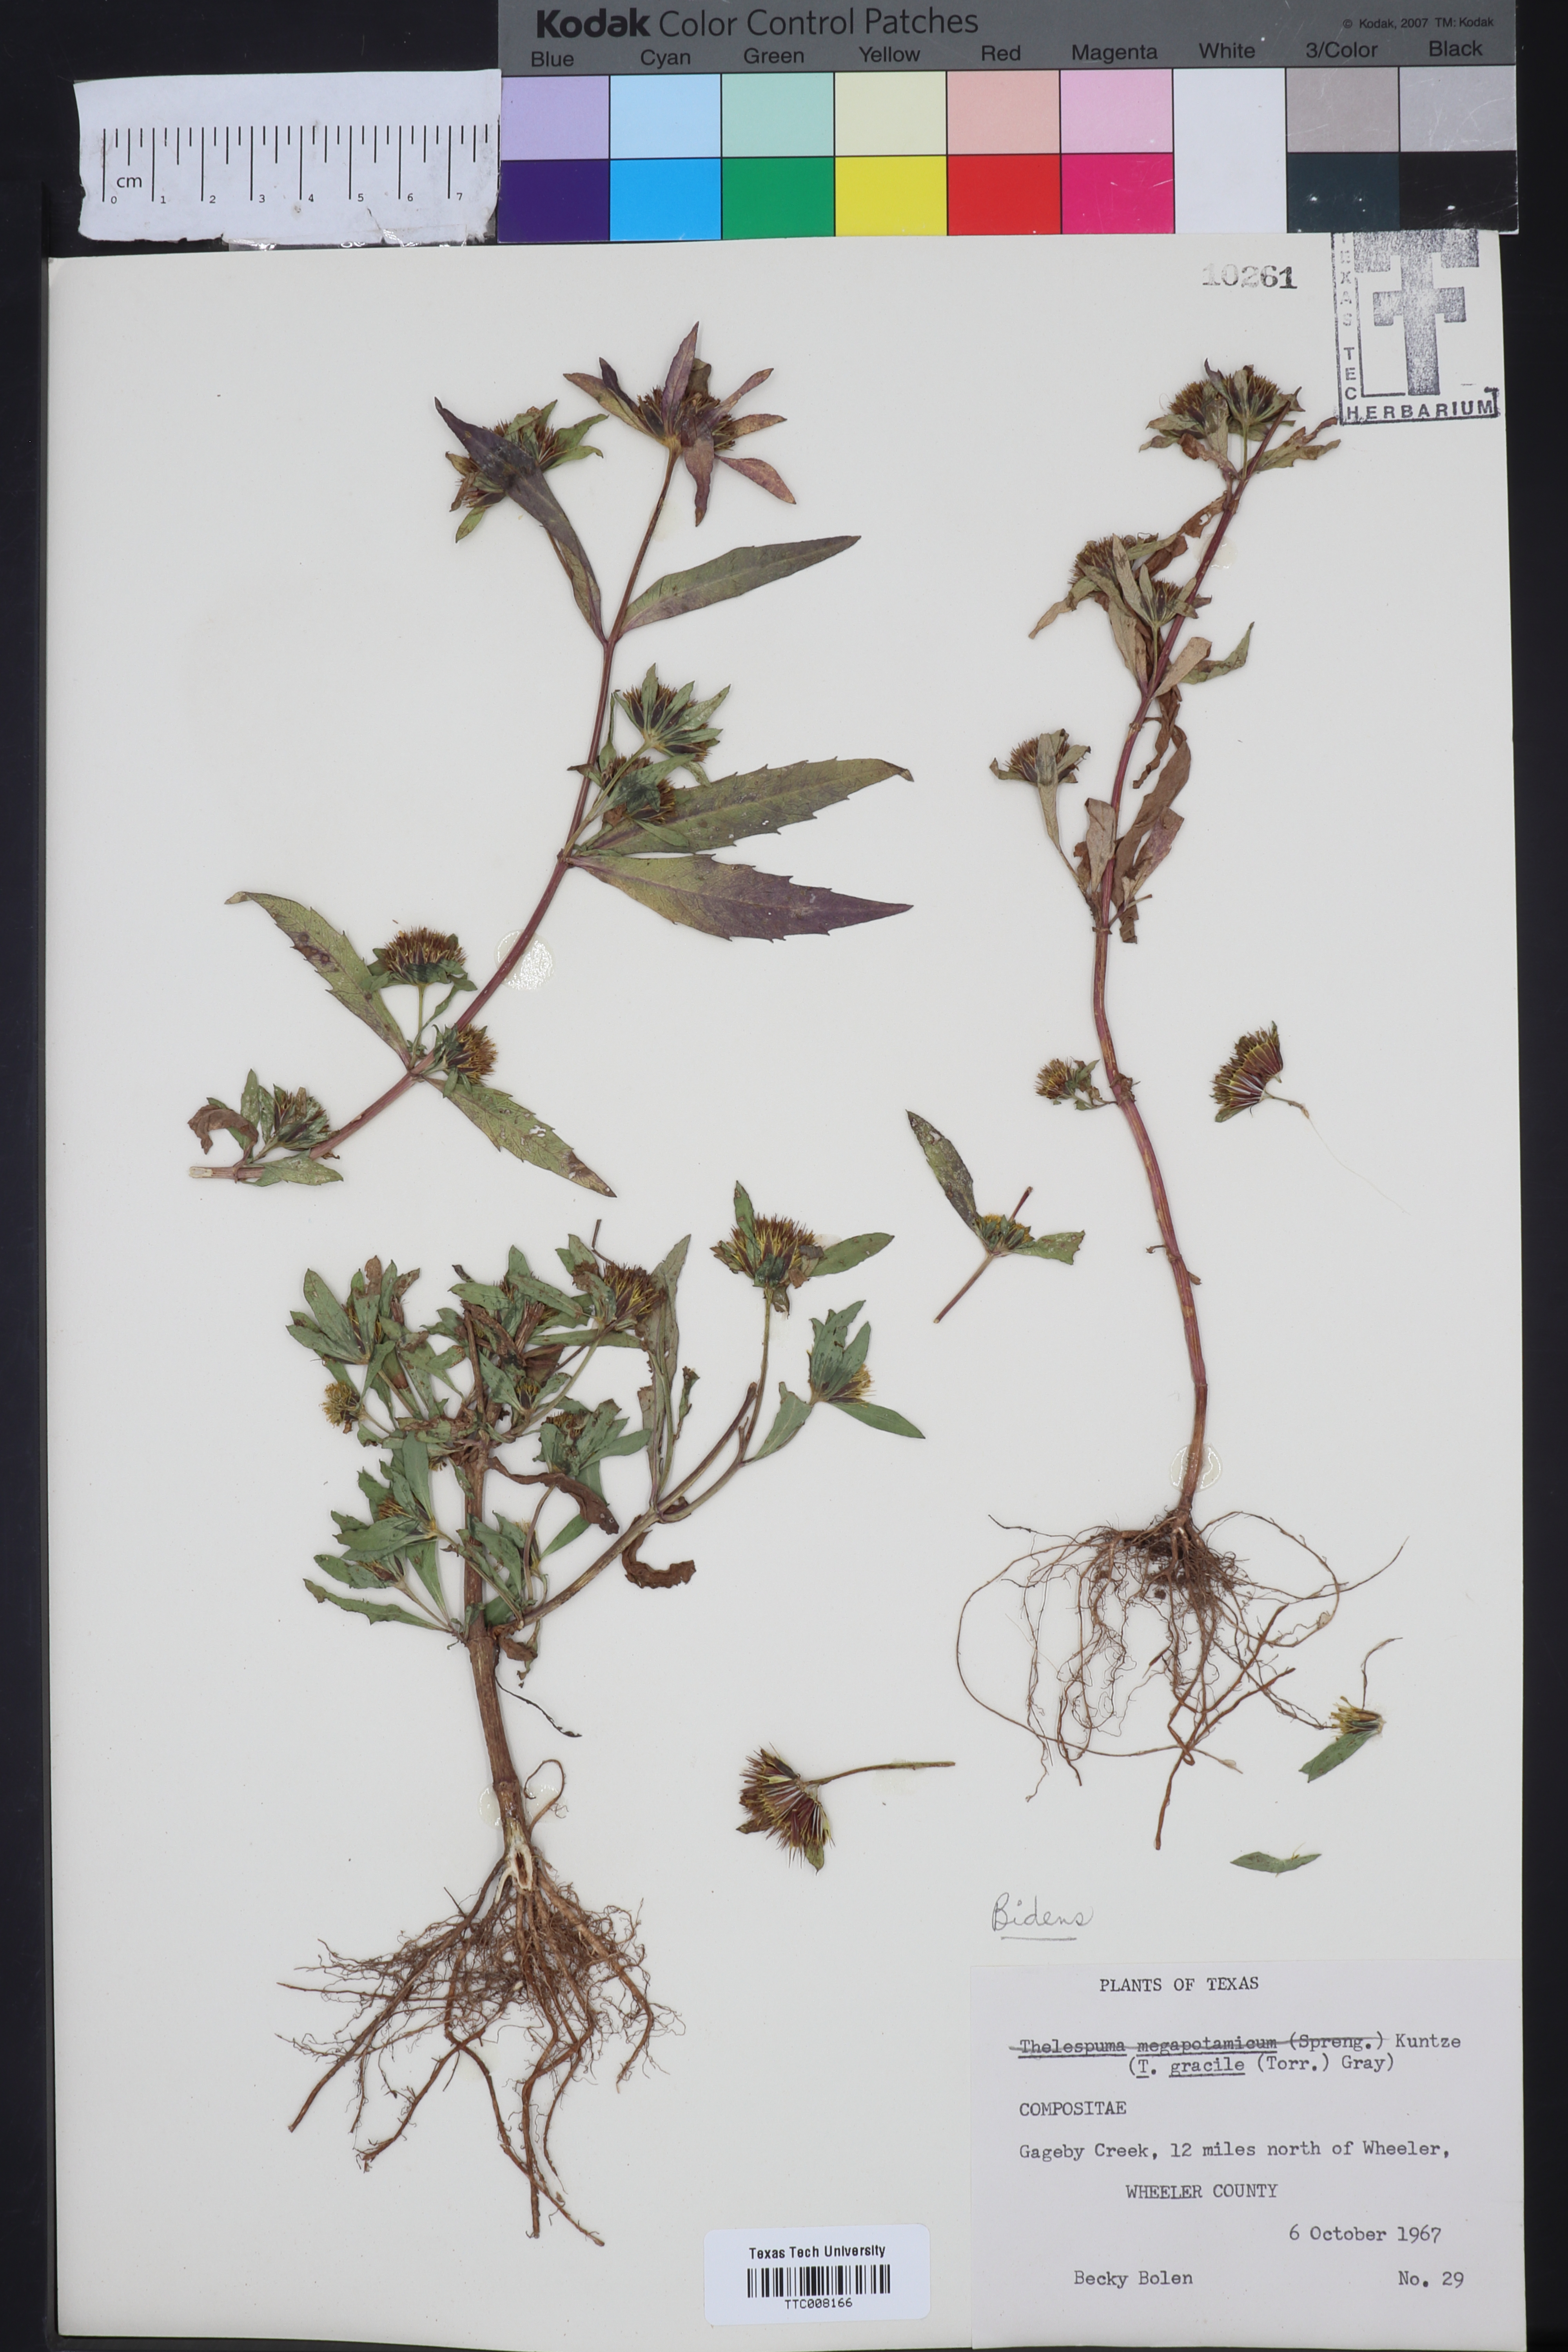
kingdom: Plantae
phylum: Tracheophyta
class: Magnoliopsida
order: Asterales
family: Asteraceae
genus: Bidens
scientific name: Bidens
